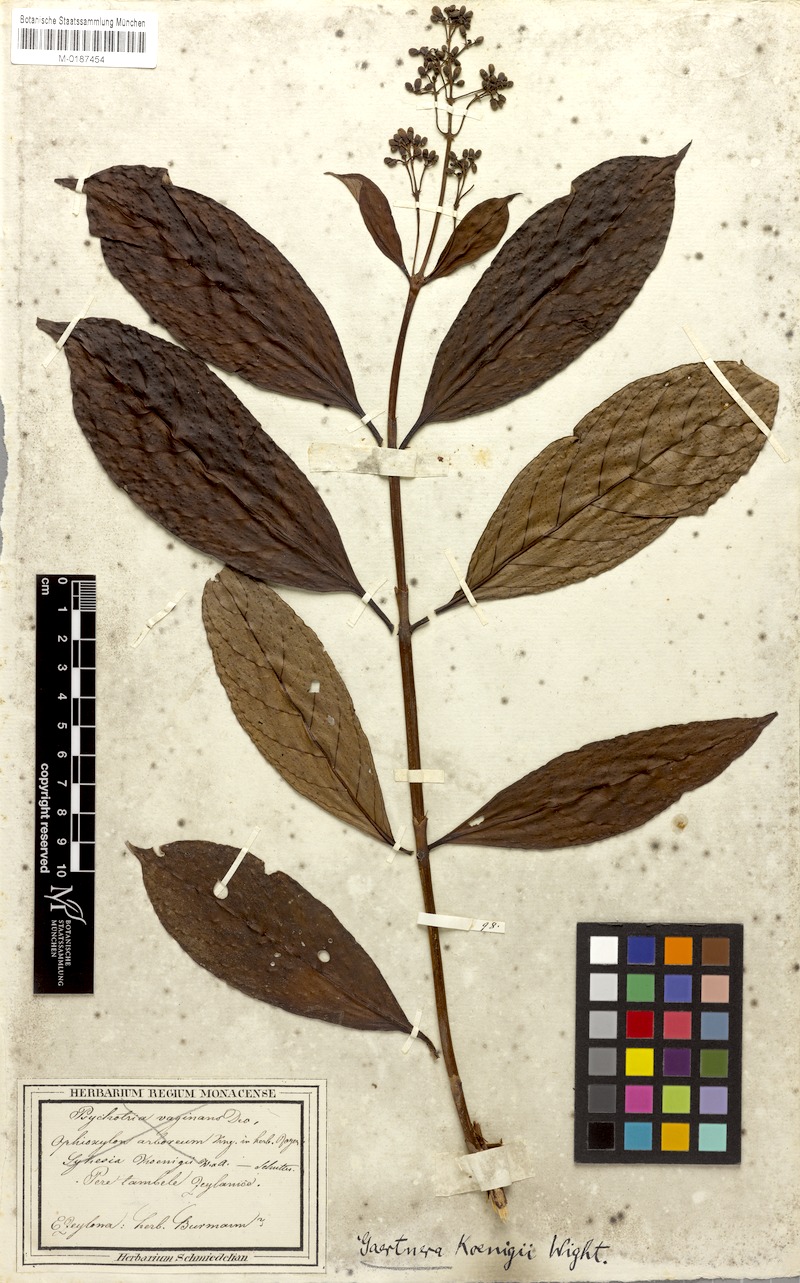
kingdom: Plantae
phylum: Tracheophyta
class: Magnoliopsida
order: Gentianales
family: Rubiaceae
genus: Gaertnera
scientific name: Gaertnera vaginans
